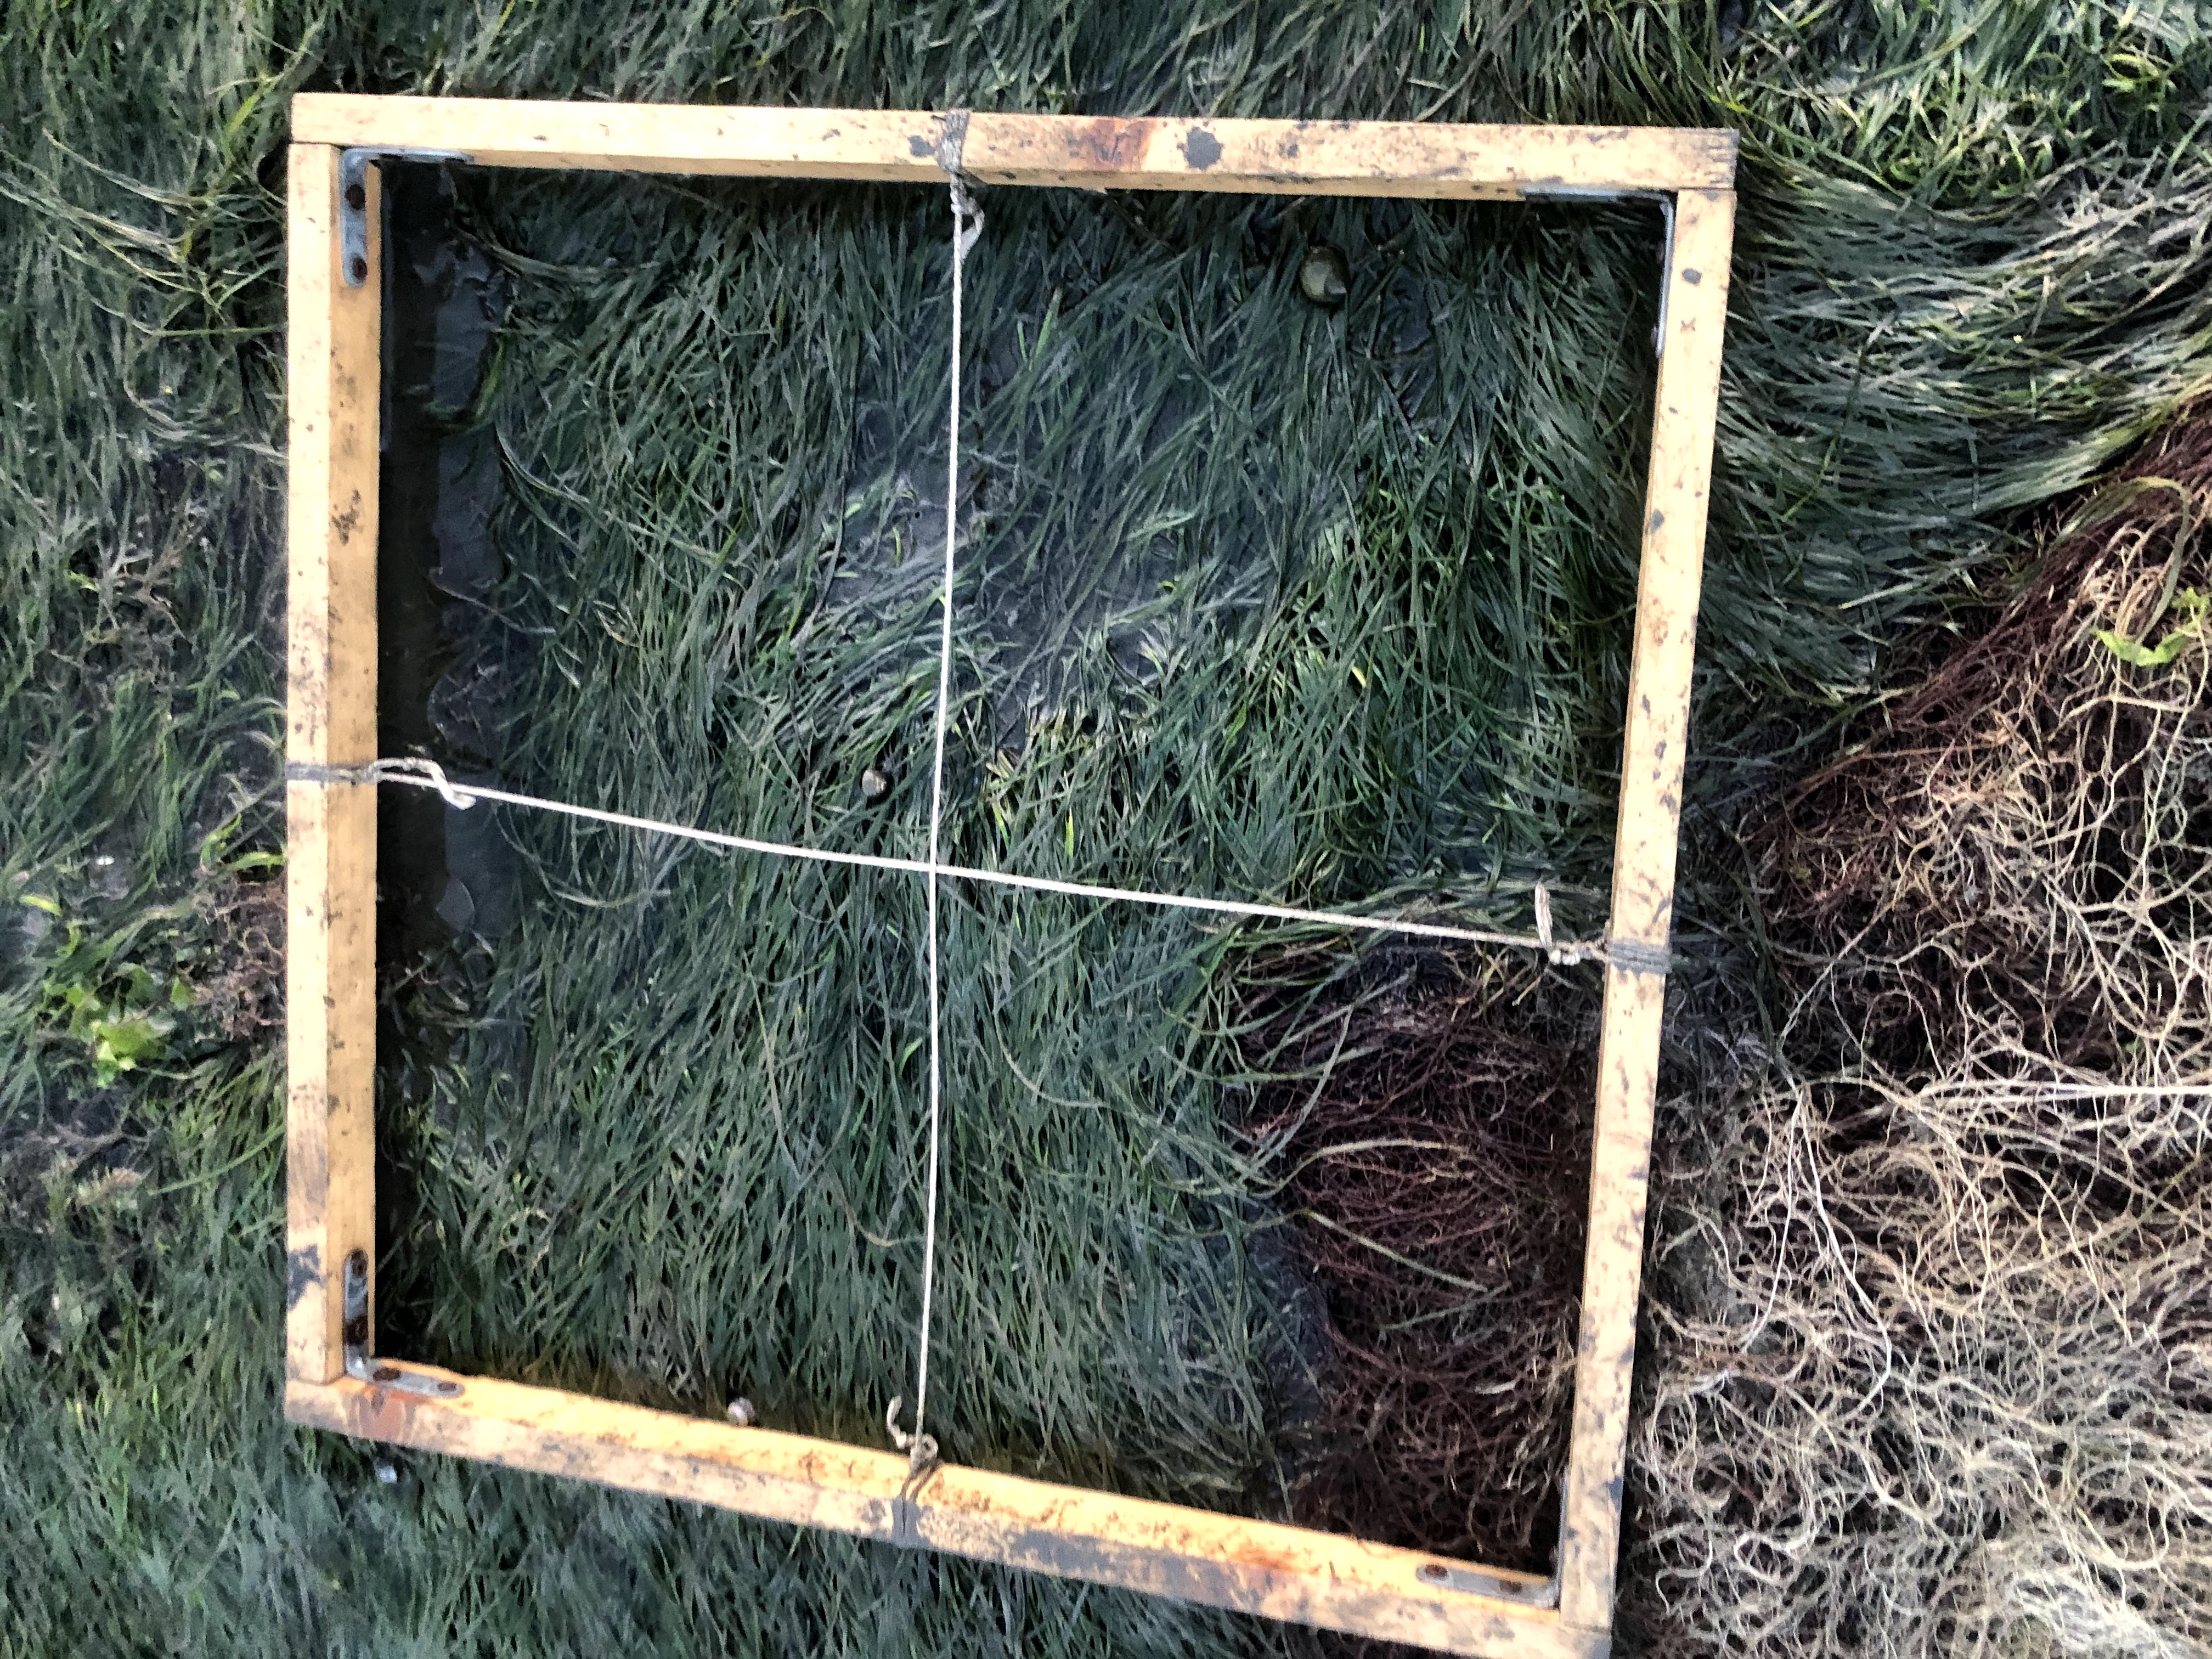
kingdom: Plantae
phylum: Tracheophyta
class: Liliopsida
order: Alismatales
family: Zosteraceae
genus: Zostera
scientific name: Zostera noltii
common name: Dwarf eelgrass
